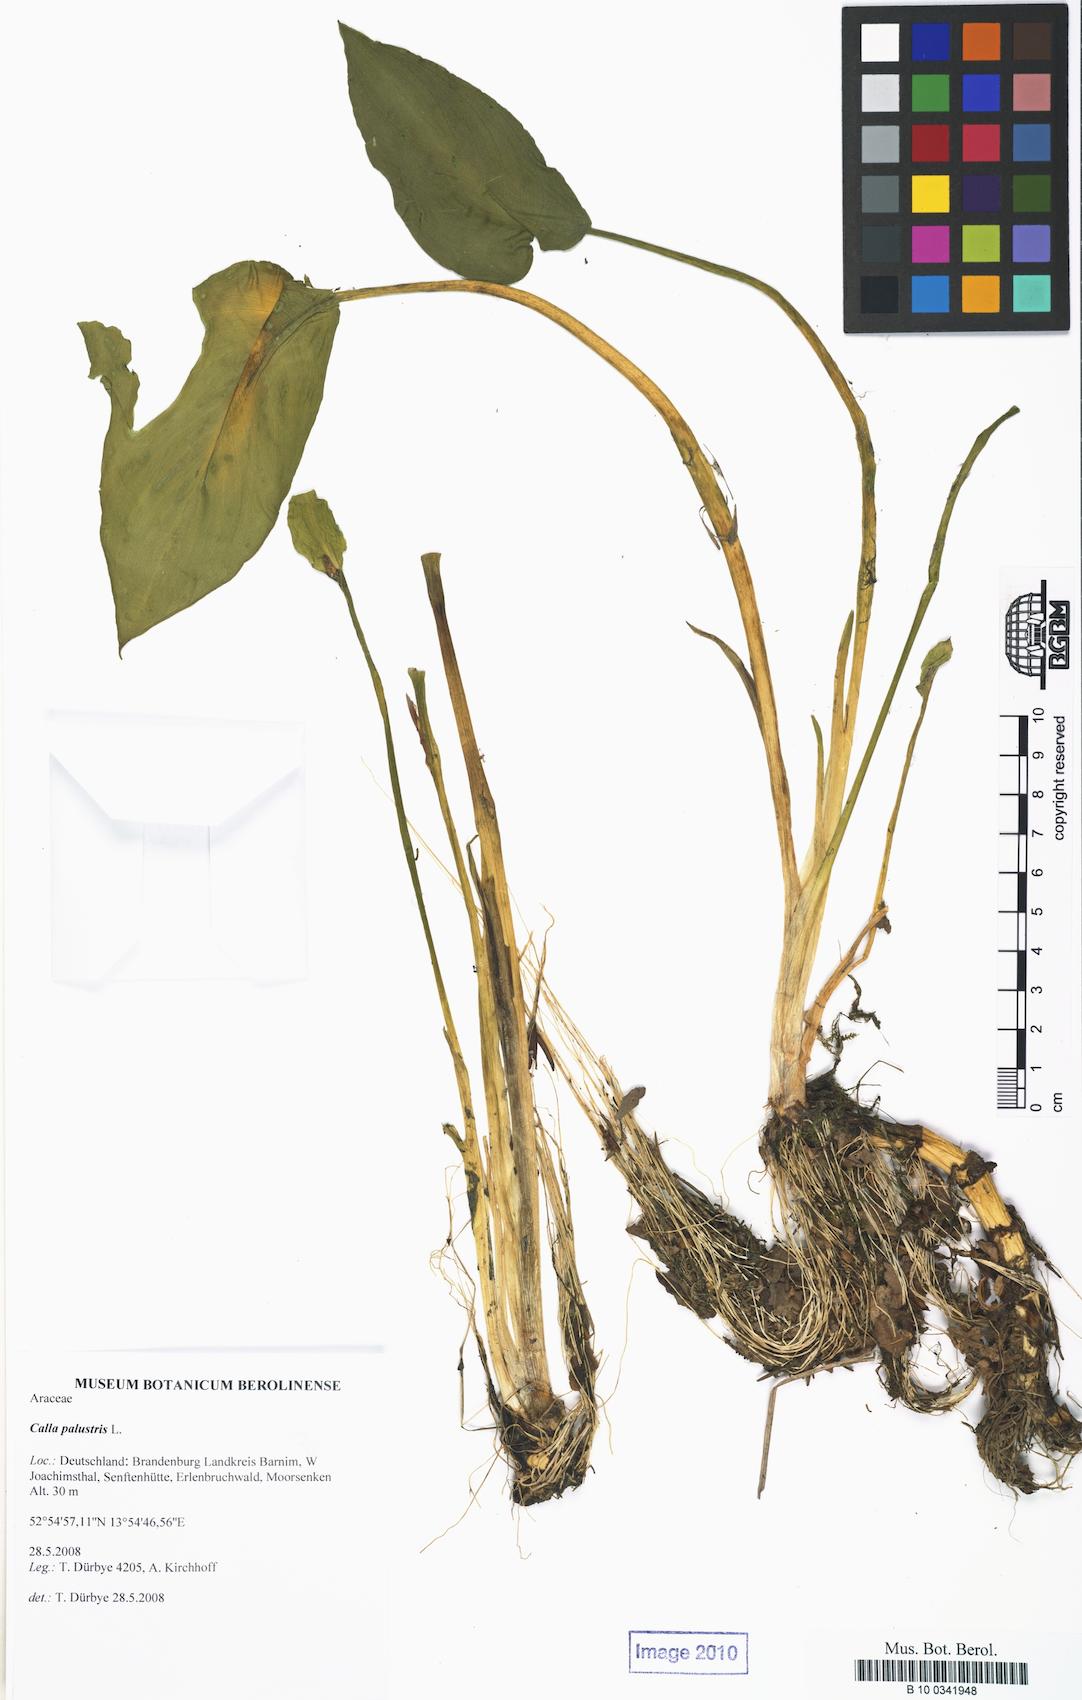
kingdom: Plantae
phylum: Tracheophyta
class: Liliopsida
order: Alismatales
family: Araceae
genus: Calla
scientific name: Calla palustris
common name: Bog arum
